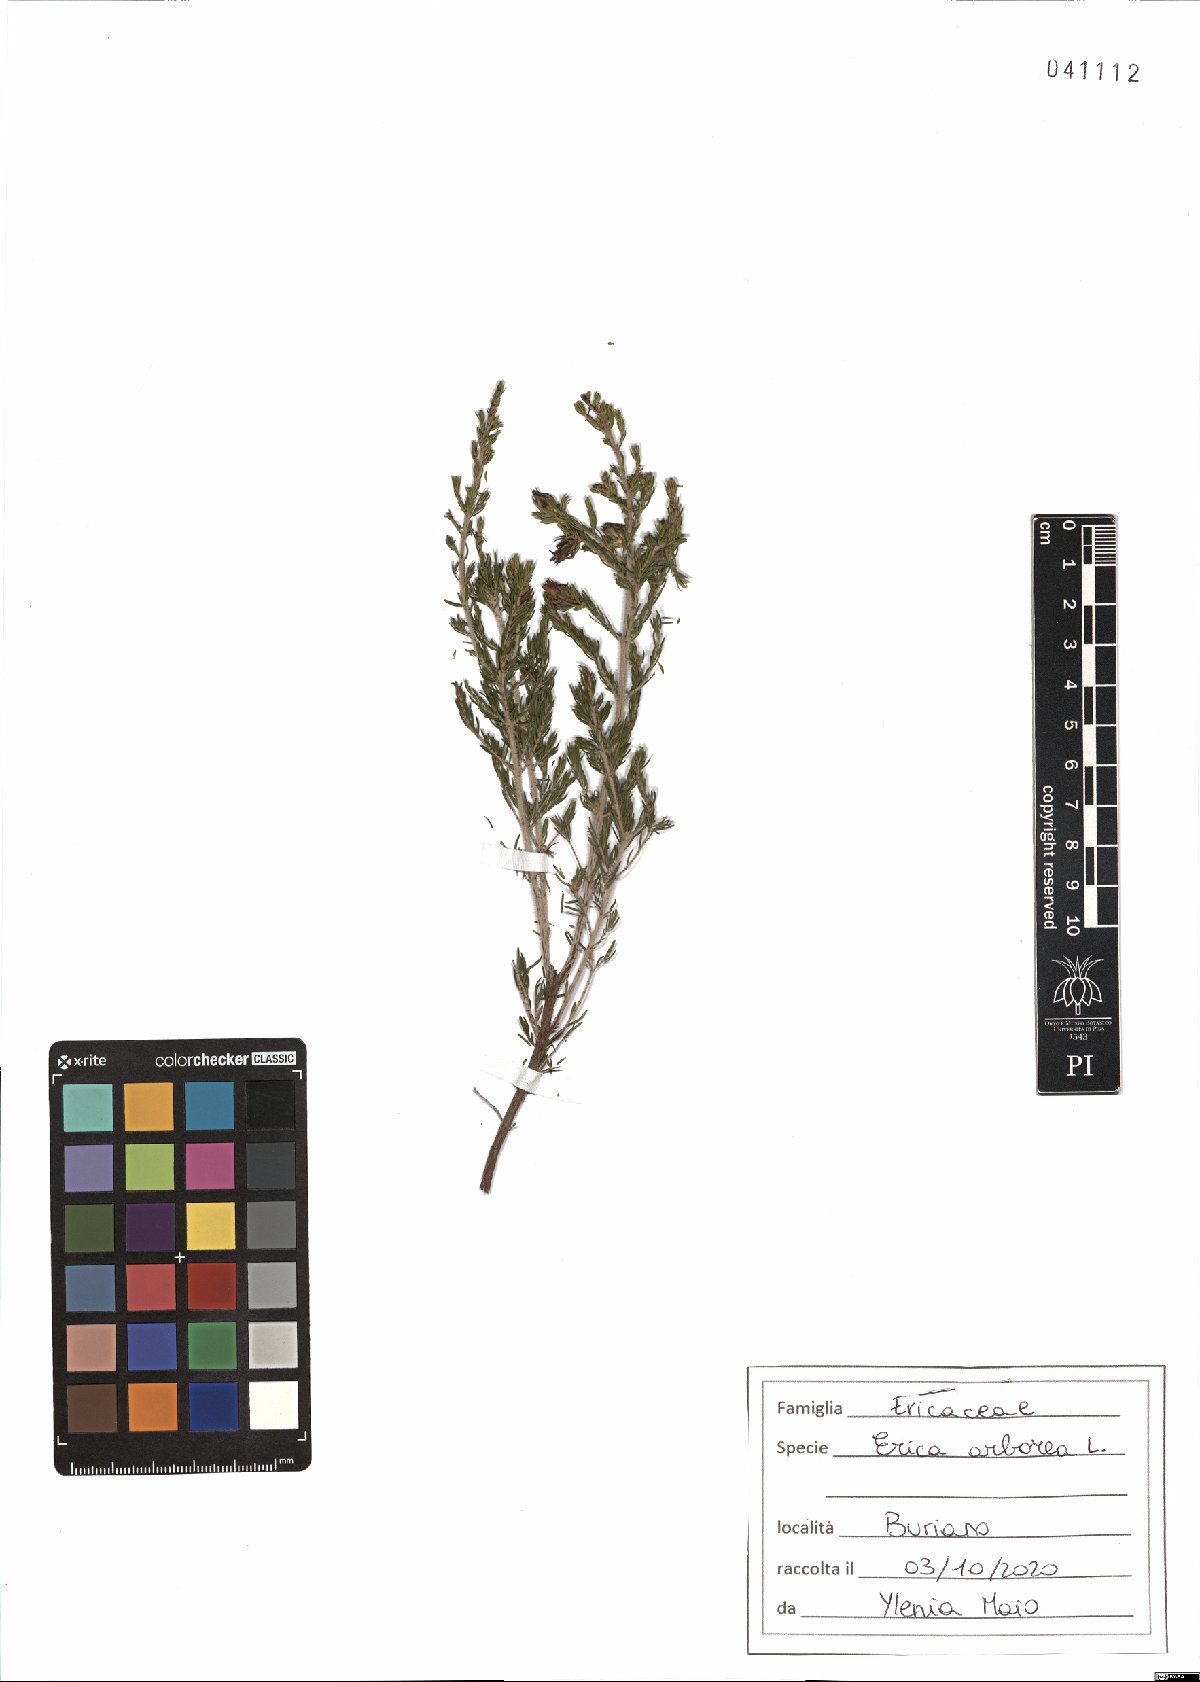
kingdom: Plantae
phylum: Tracheophyta
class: Magnoliopsida
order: Ericales
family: Ericaceae
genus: Erica
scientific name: Erica arborea
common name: Tree heath
